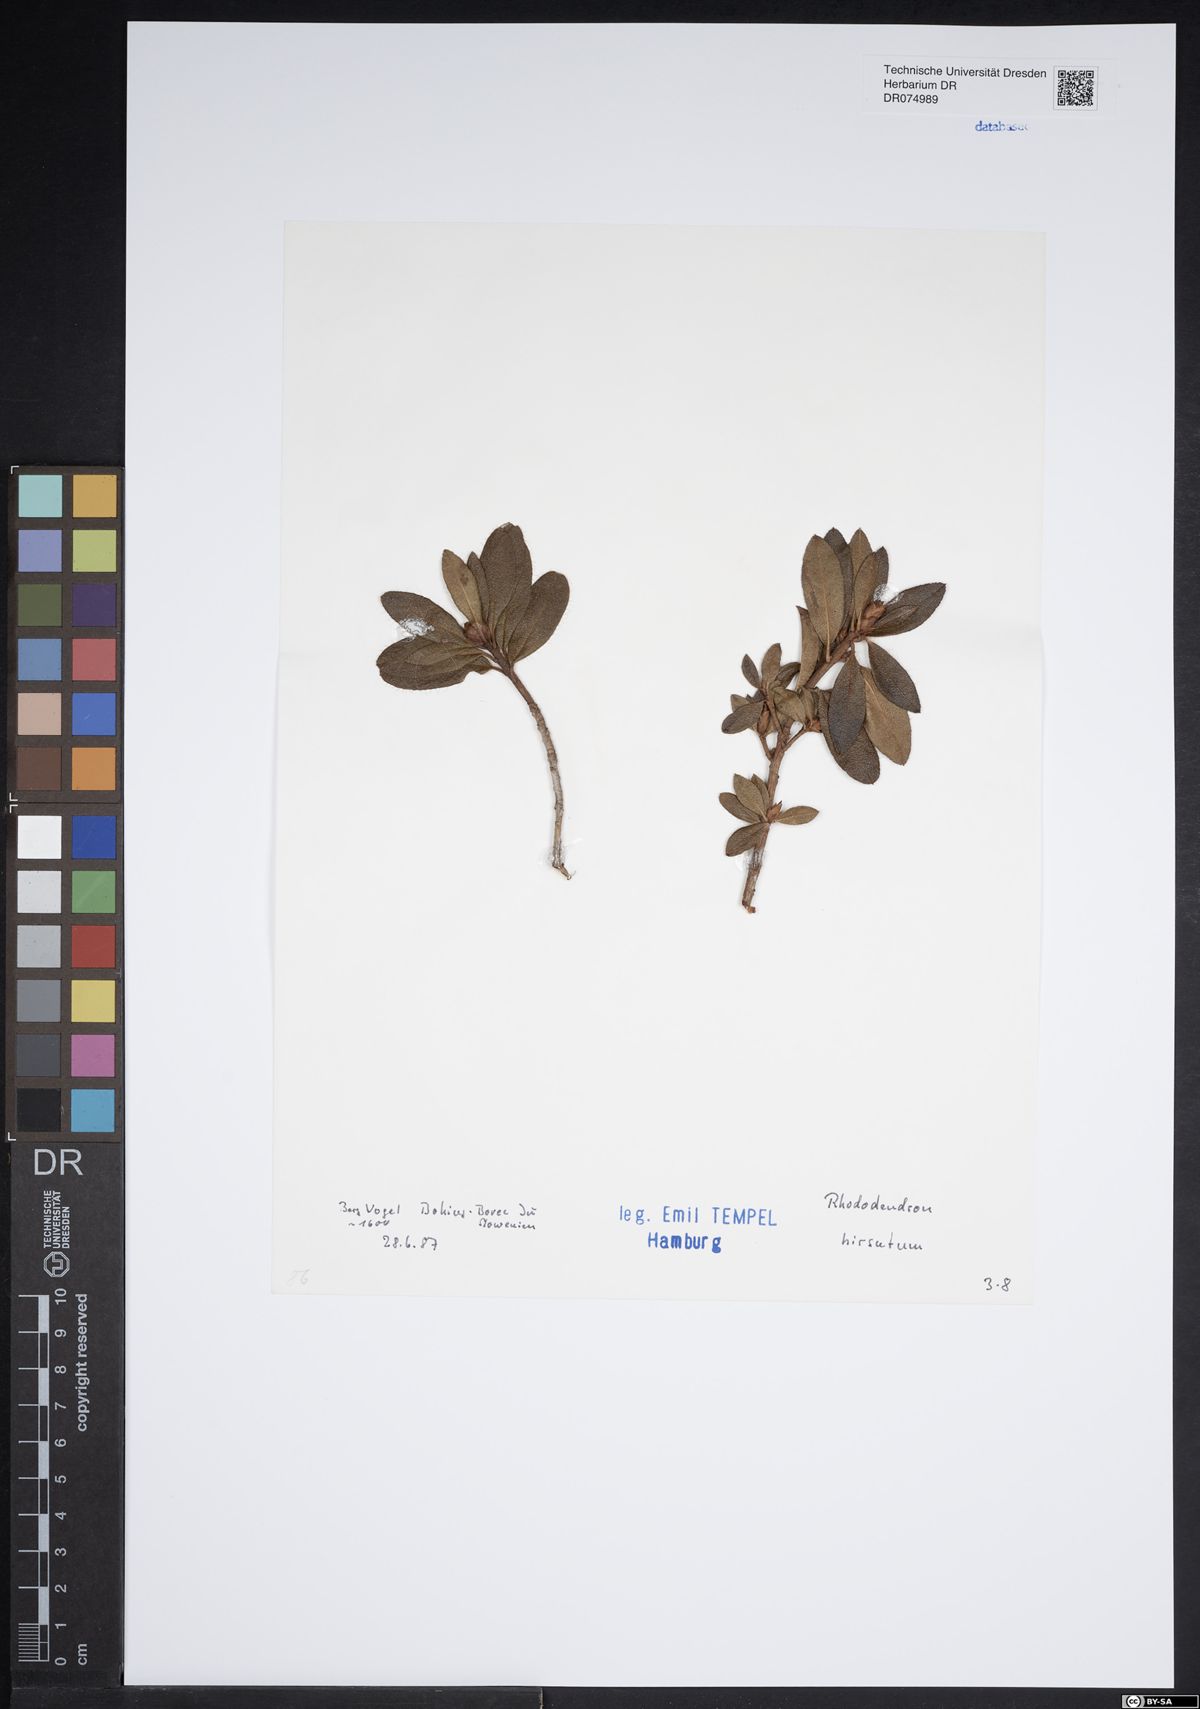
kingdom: Plantae
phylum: Tracheophyta
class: Magnoliopsida
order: Ericales
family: Ericaceae
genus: Rhododendron
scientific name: Rhododendron hirsutum
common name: Hairy alpenrose
